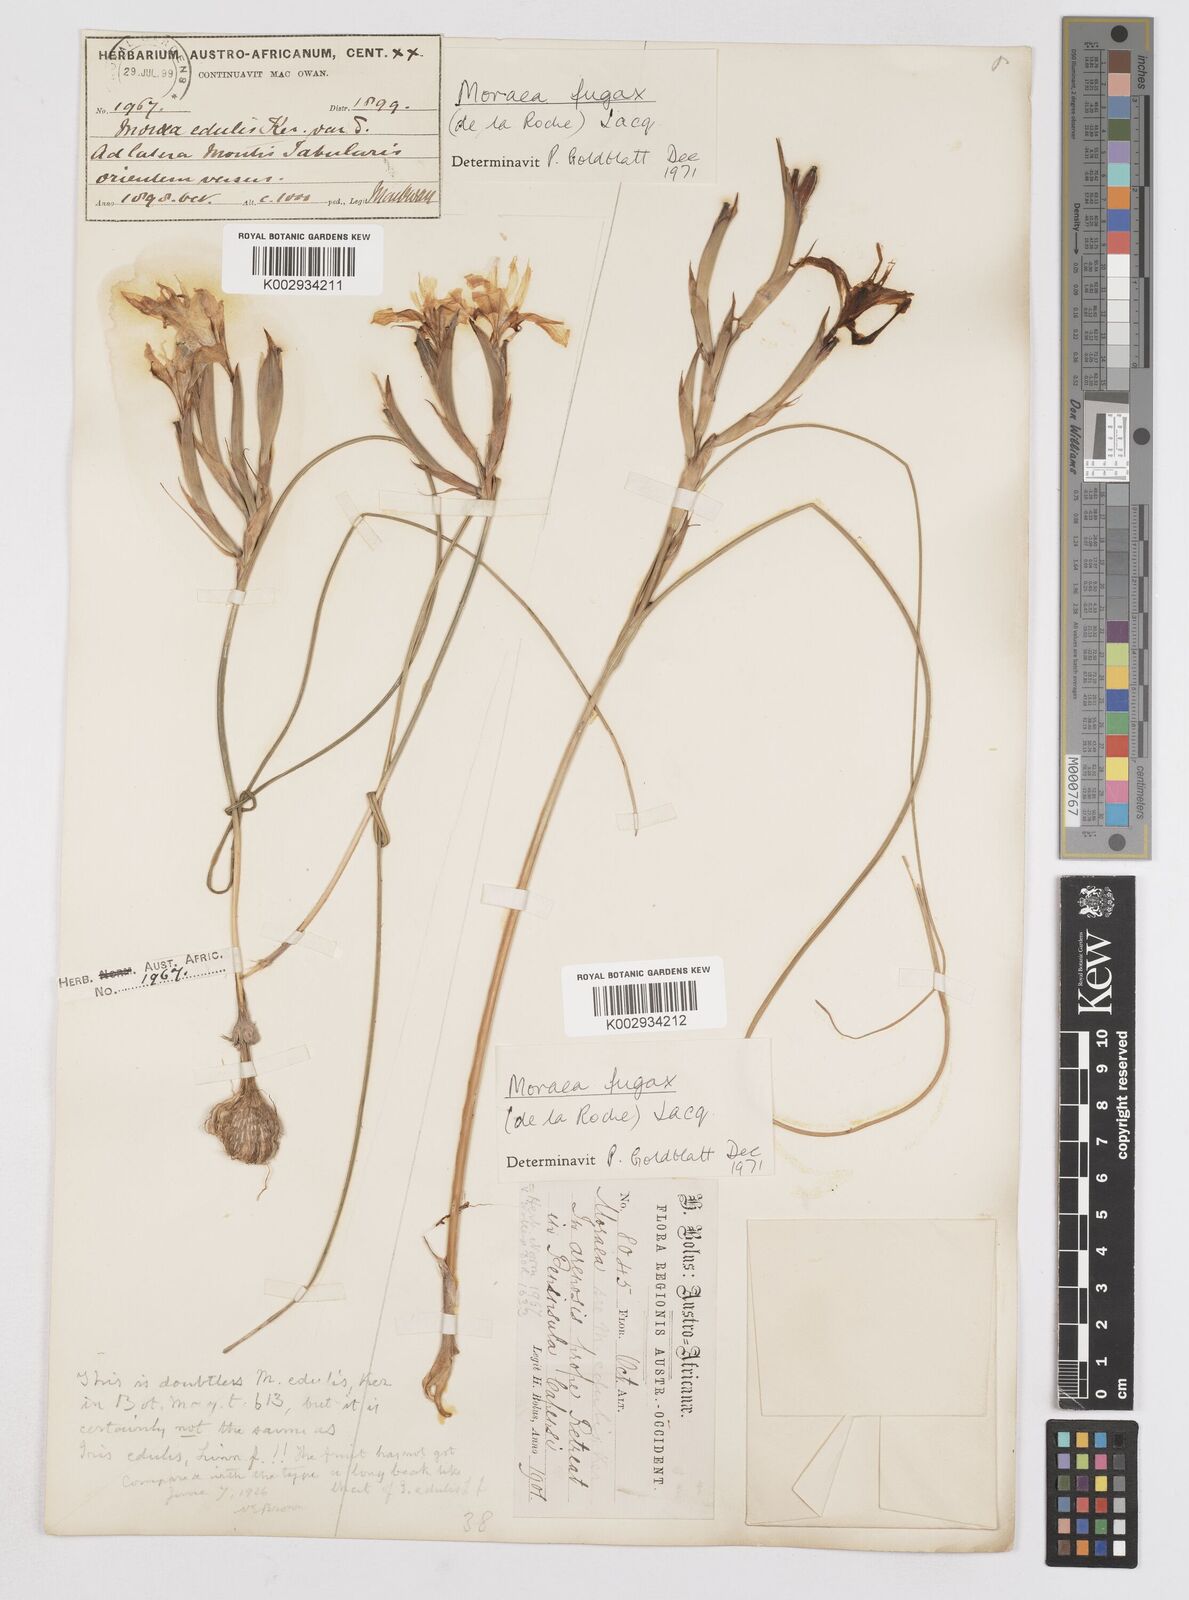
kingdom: Plantae
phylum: Tracheophyta
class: Liliopsida
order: Asparagales
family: Iridaceae
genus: Moraea
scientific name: Moraea fugax
